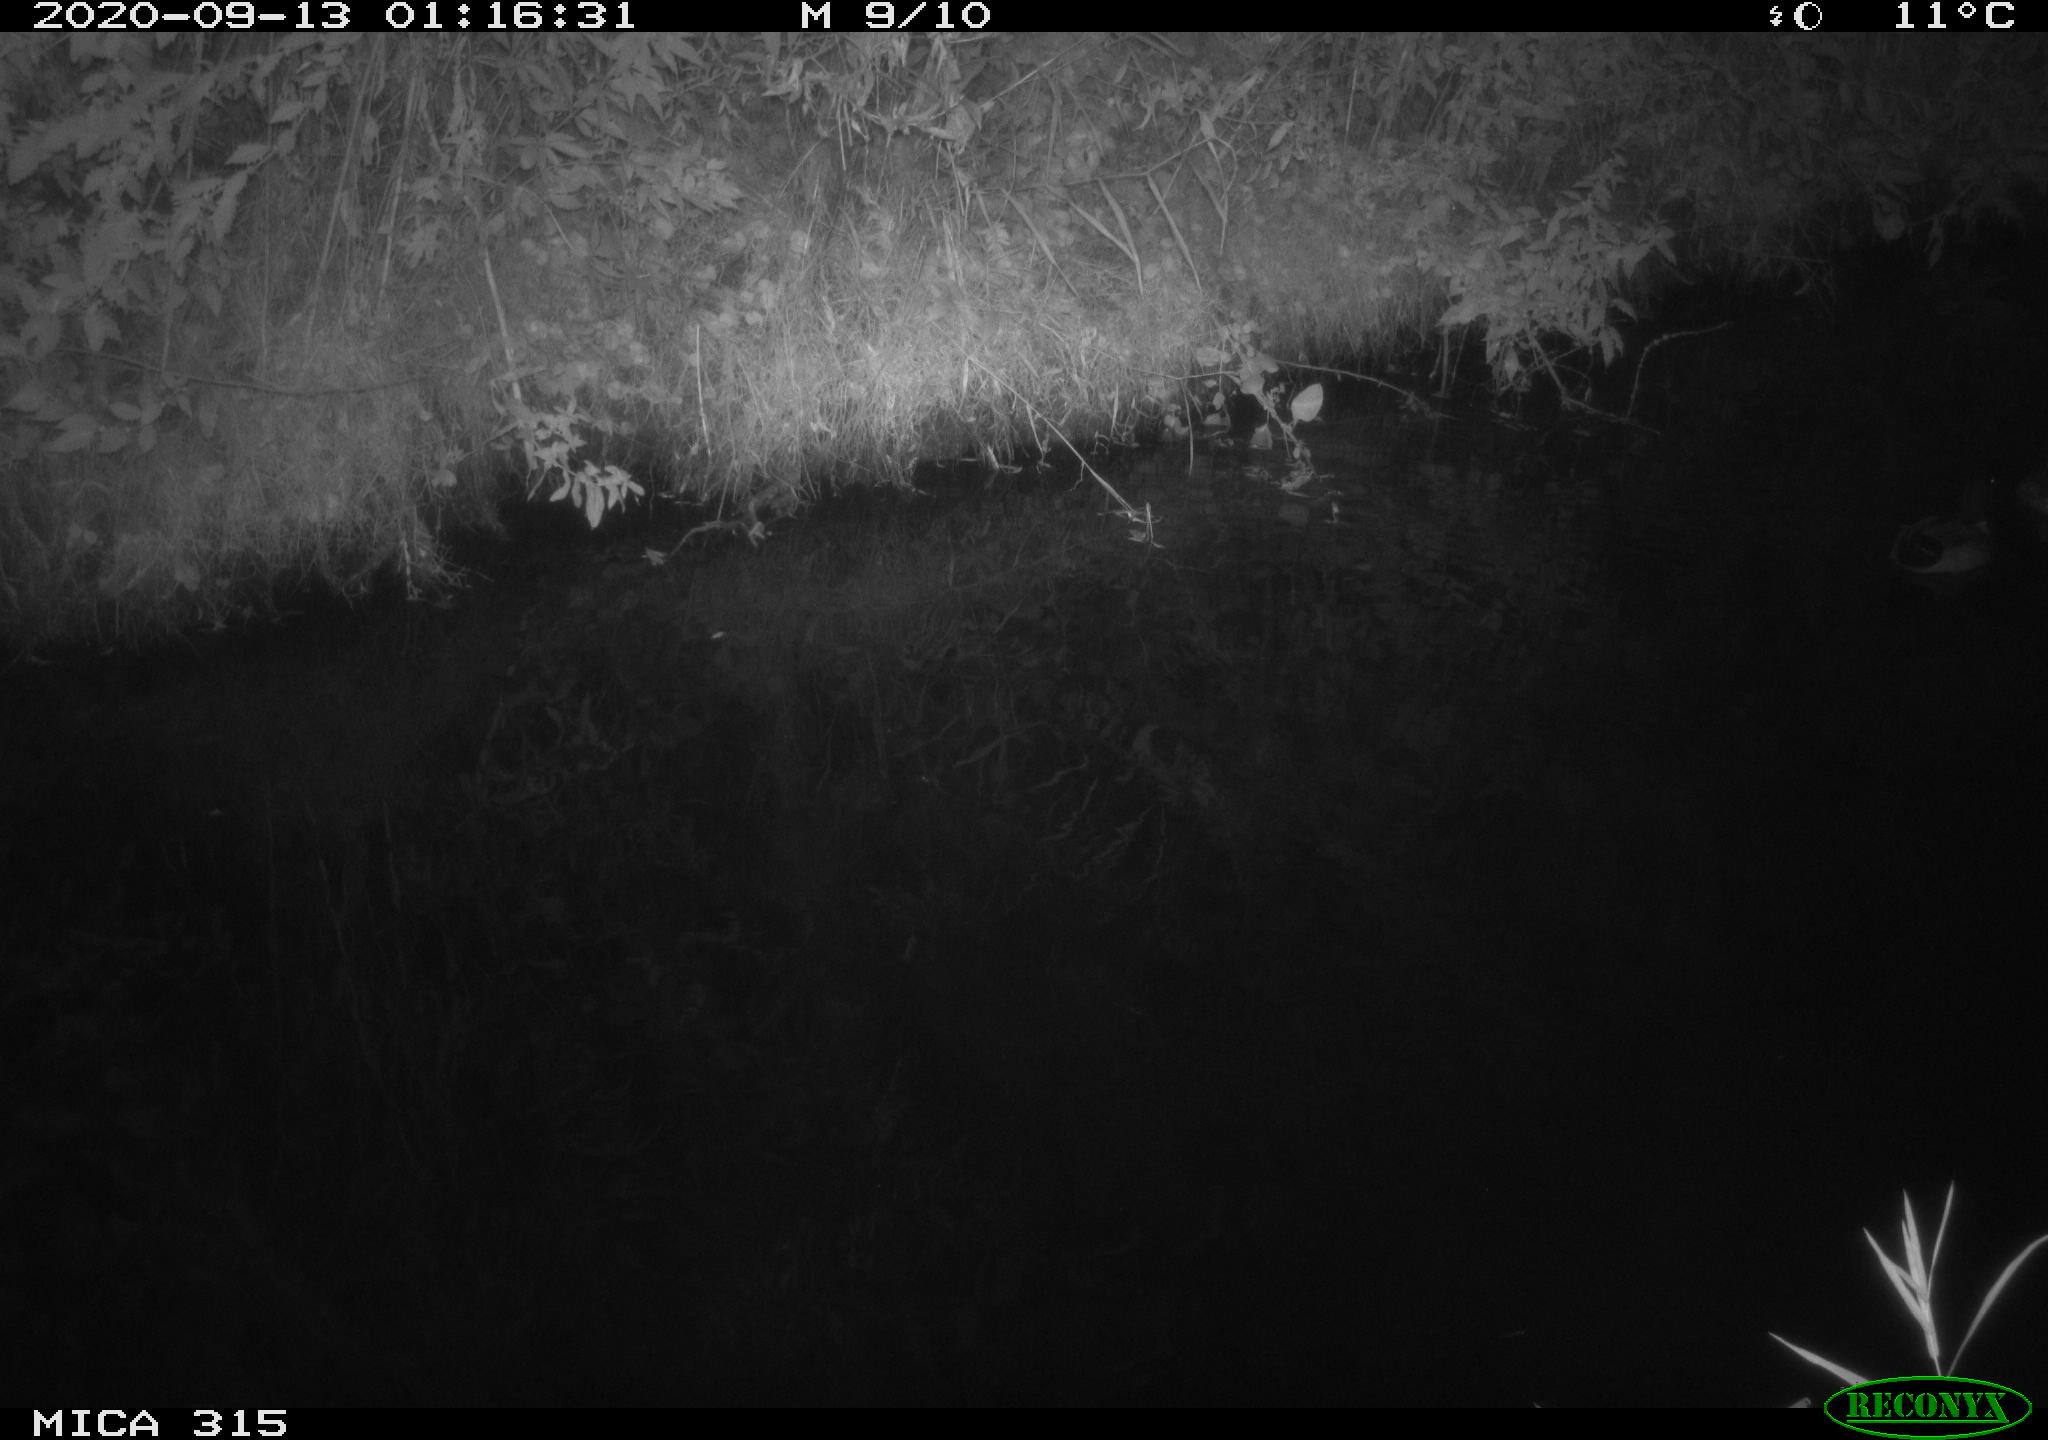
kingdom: Animalia
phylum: Chordata
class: Aves
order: Anseriformes
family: Anatidae
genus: Anas
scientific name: Anas platyrhynchos
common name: Mallard
